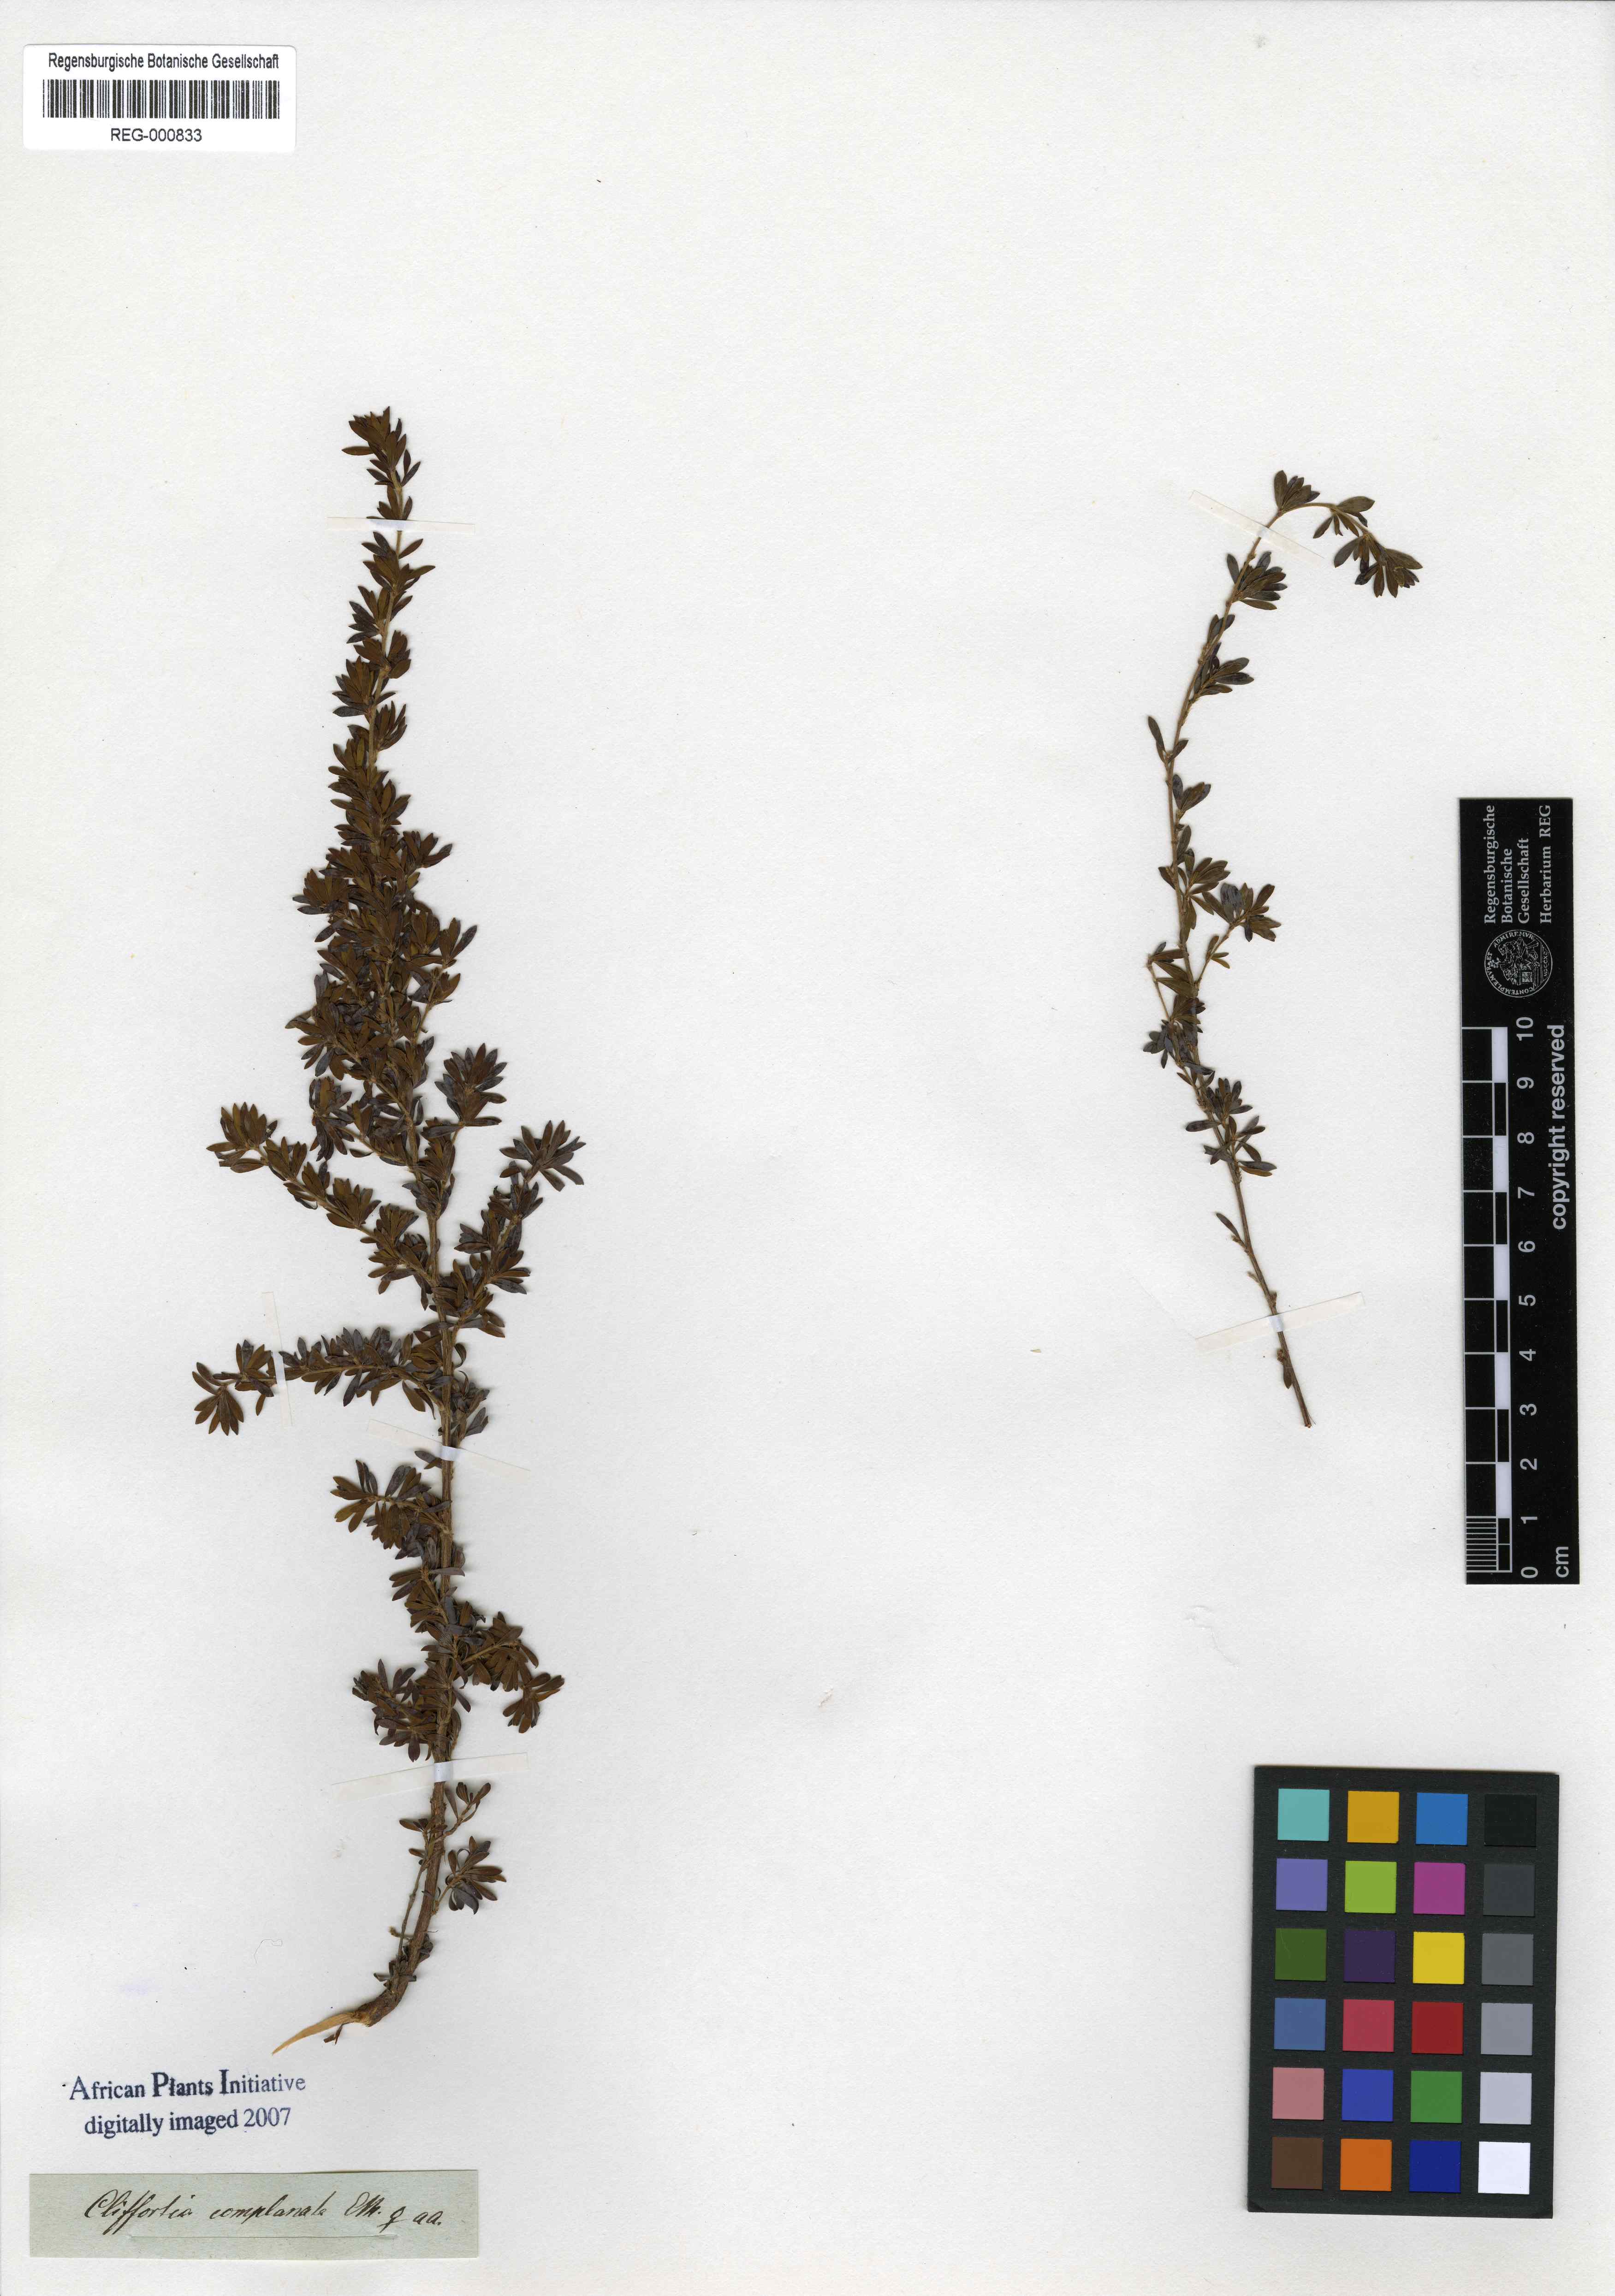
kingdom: Plantae
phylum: Tracheophyta
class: Magnoliopsida
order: Rosales
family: Rosaceae
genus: Cliffortia
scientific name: Cliffortia complanata
